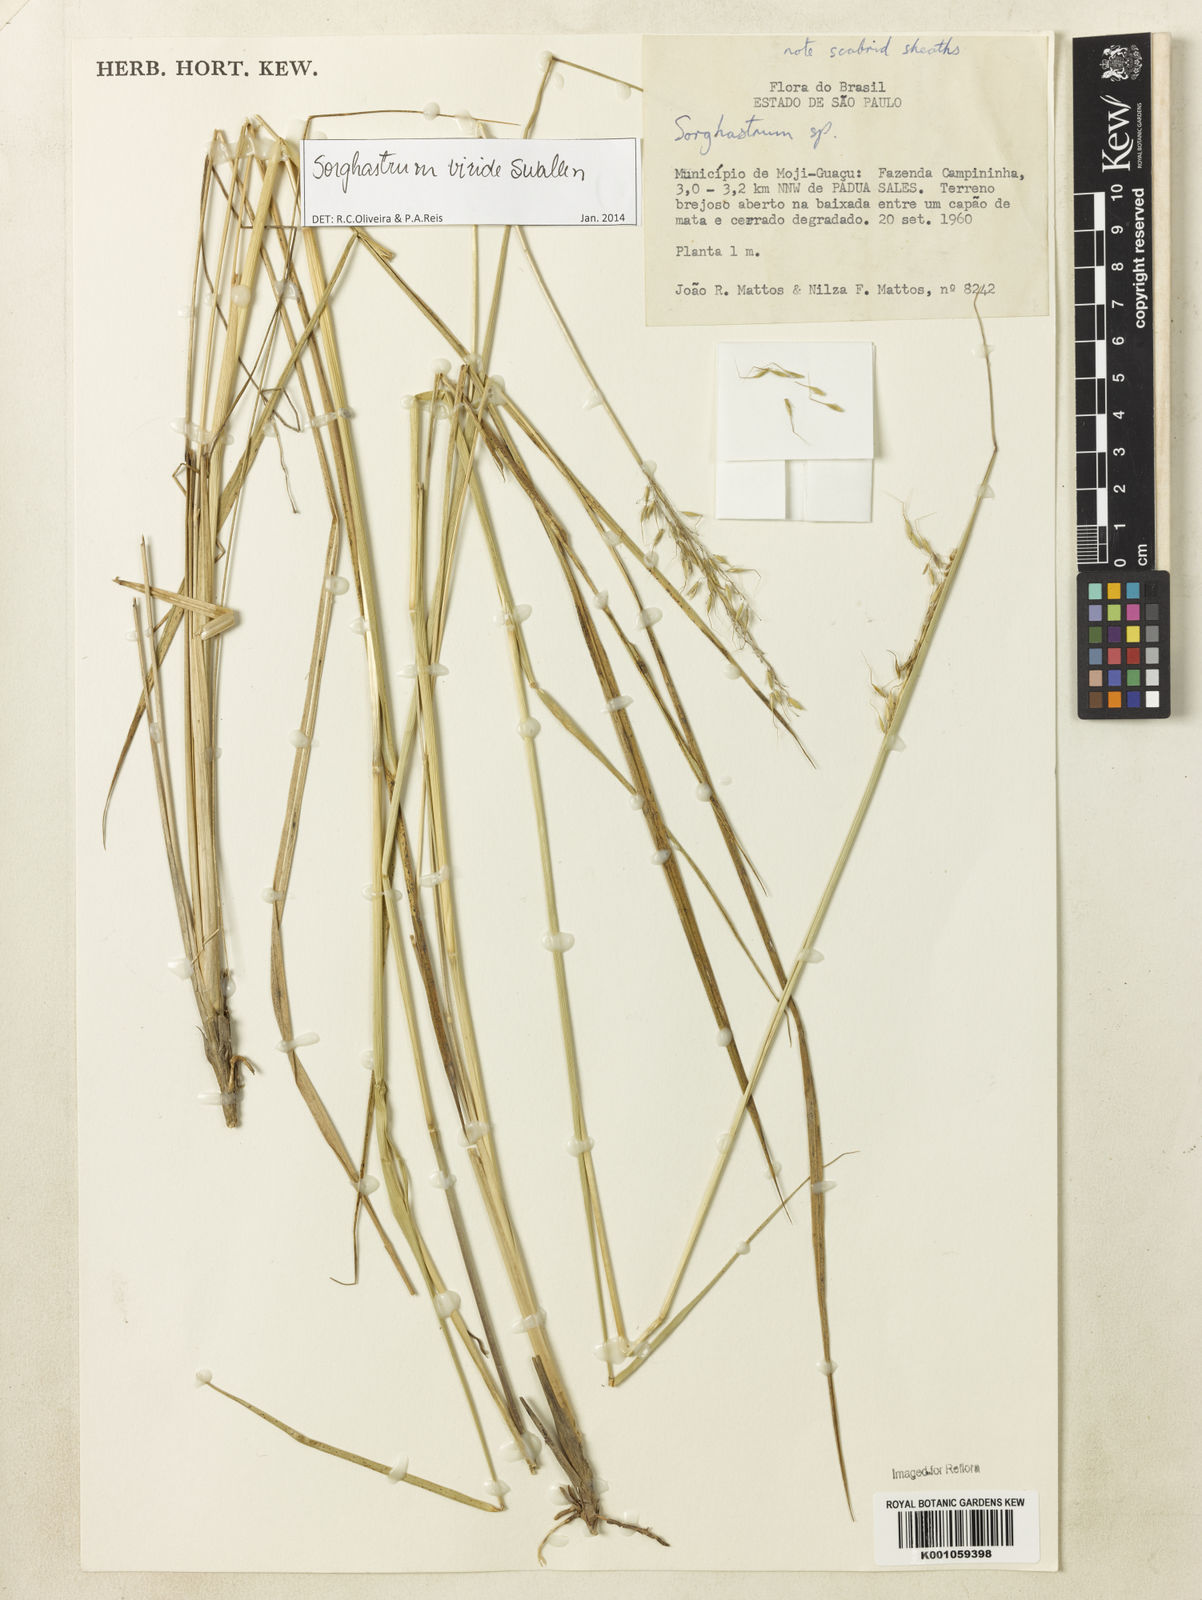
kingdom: Plantae
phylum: Tracheophyta
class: Liliopsida
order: Poales
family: Poaceae
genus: Sorghastrum
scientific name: Sorghastrum viride
